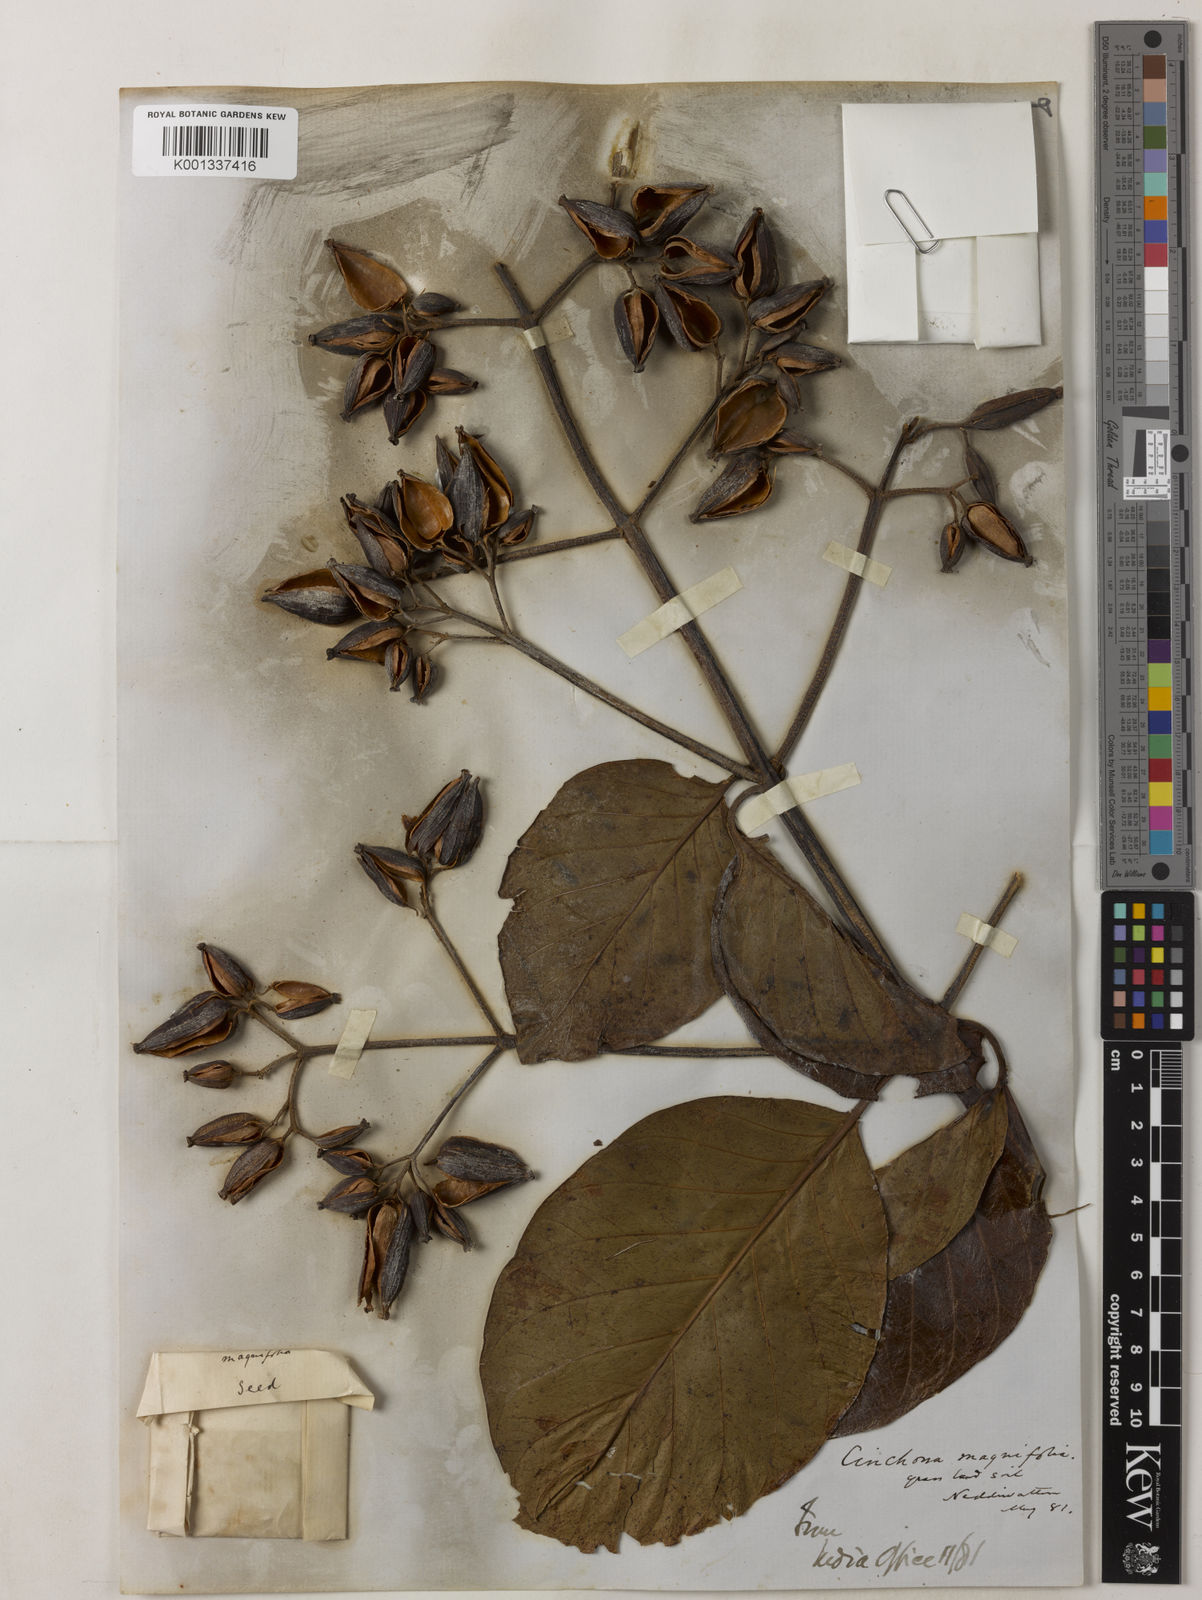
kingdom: Plantae
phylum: Tracheophyta
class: Magnoliopsida
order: Gentianales
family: Rubiaceae
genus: Cinchona
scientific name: Cinchona pubescens
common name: Quinine
